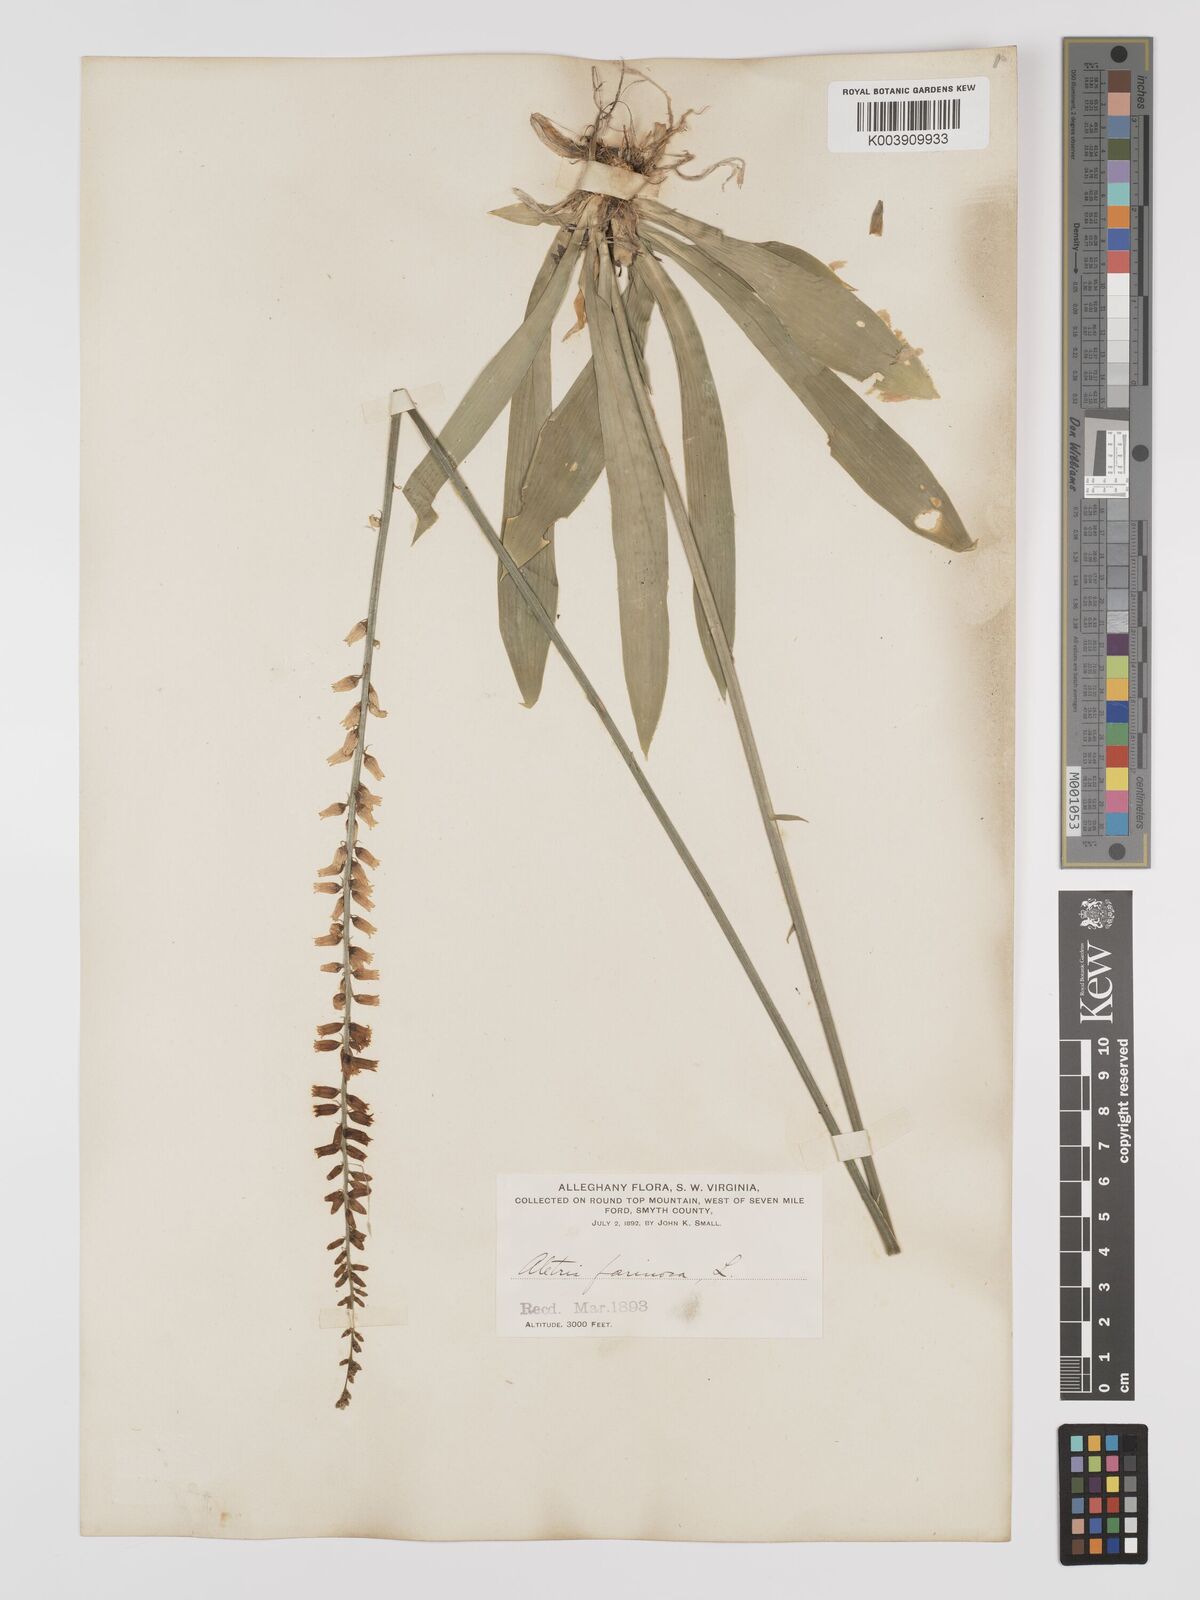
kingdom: Plantae
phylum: Tracheophyta
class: Liliopsida
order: Dioscoreales
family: Nartheciaceae
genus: Aletris
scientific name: Aletris farinosa
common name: Colicroot
